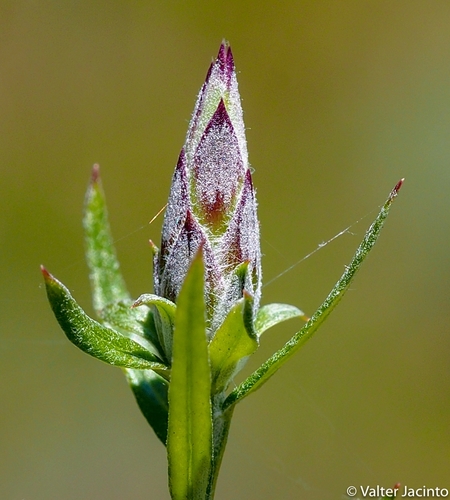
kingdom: Plantae
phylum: Tracheophyta
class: Magnoliopsida
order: Asterales
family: Asteraceae
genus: Staehelina
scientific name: Staehelina dubia
